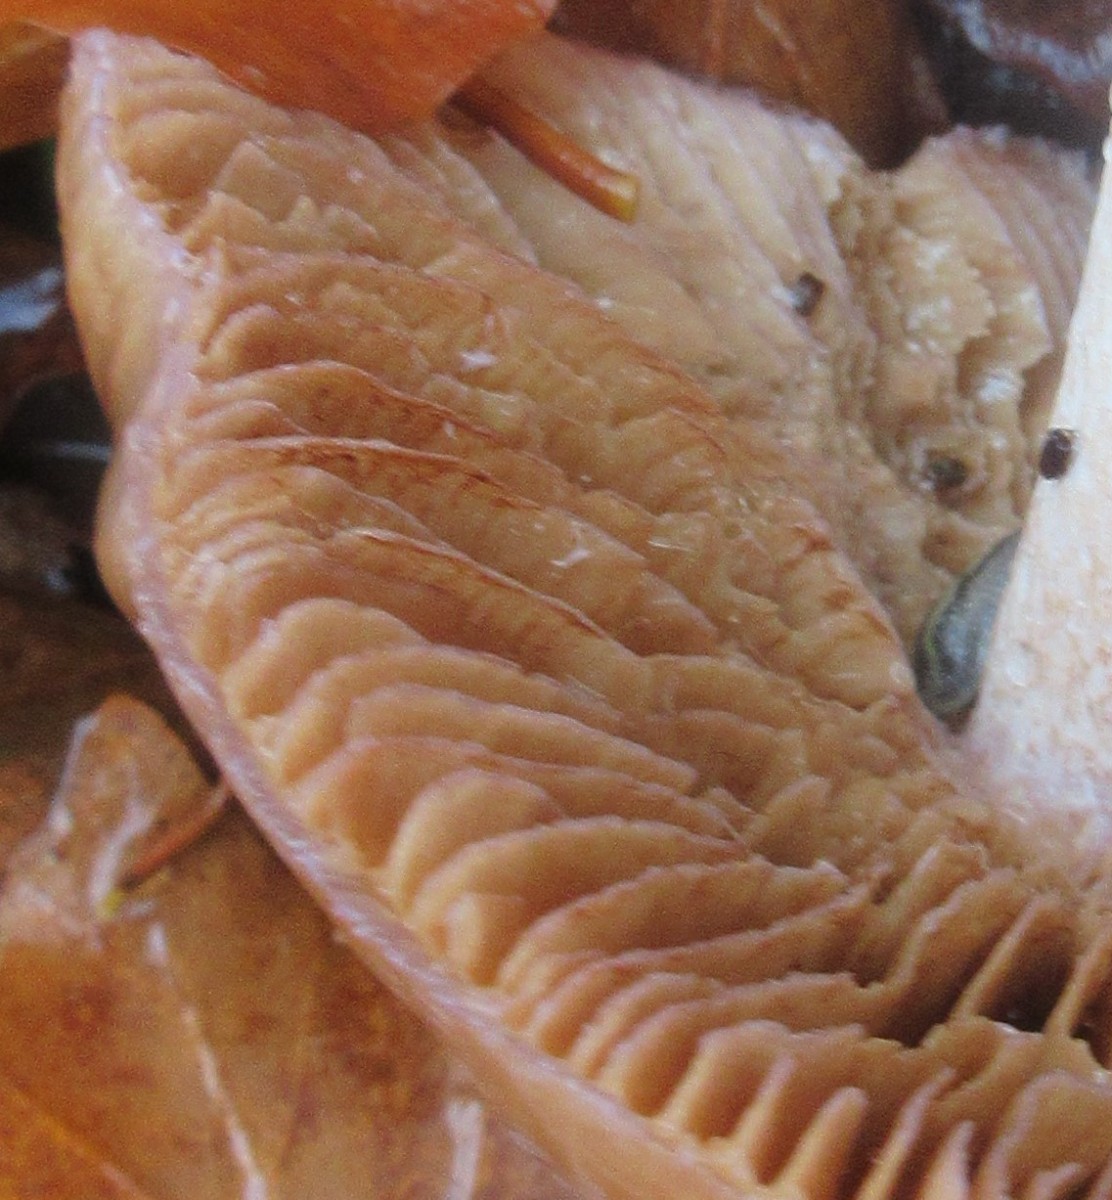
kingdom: Fungi
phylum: Basidiomycota
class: Agaricomycetes
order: Agaricales
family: Cortinariaceae
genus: Cortinarius
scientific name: Cortinarius elatior
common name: høj slørhat
